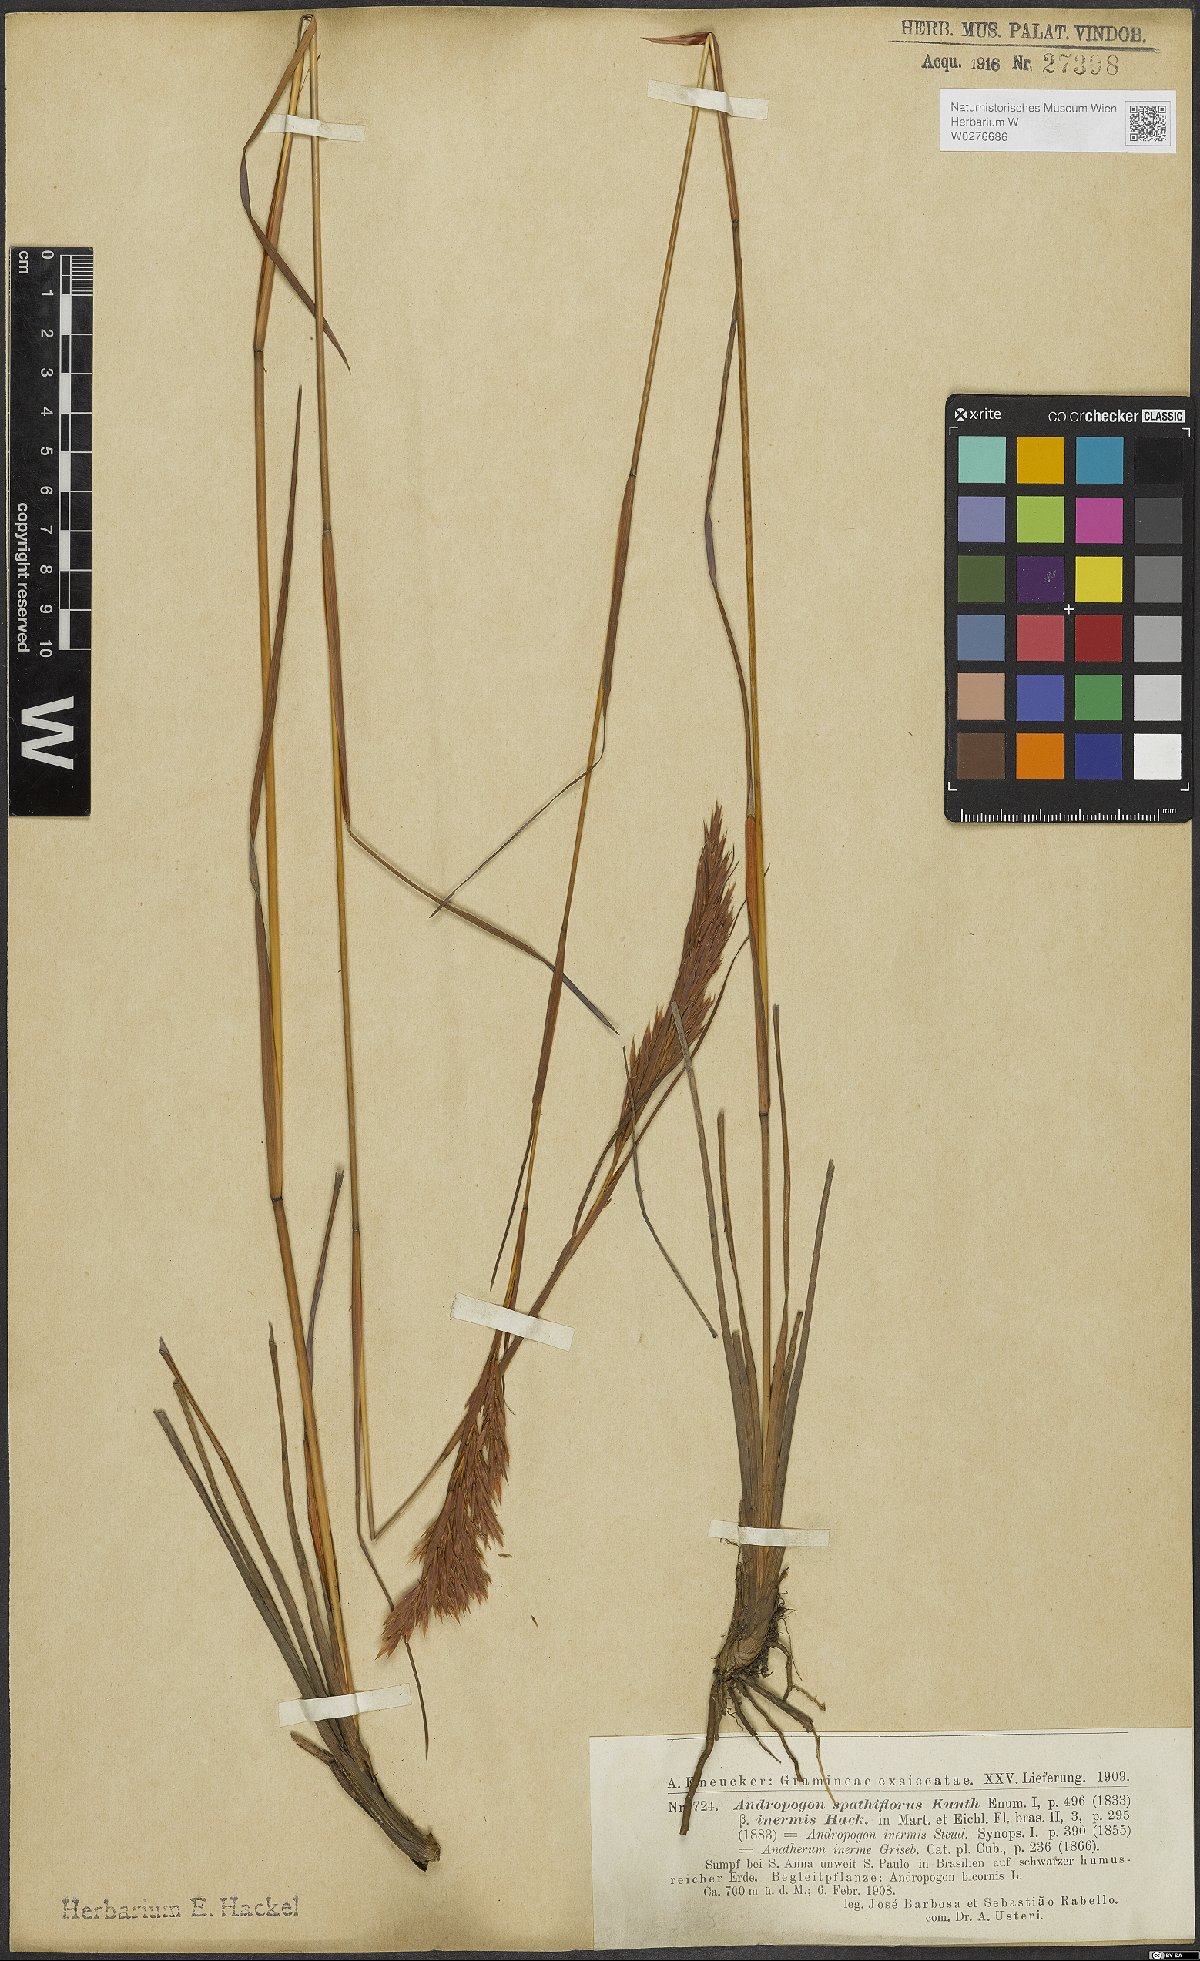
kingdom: Plantae
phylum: Tracheophyta
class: Liliopsida
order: Poales
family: Poaceae
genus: Andropogon
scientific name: Andropogon virgatus
